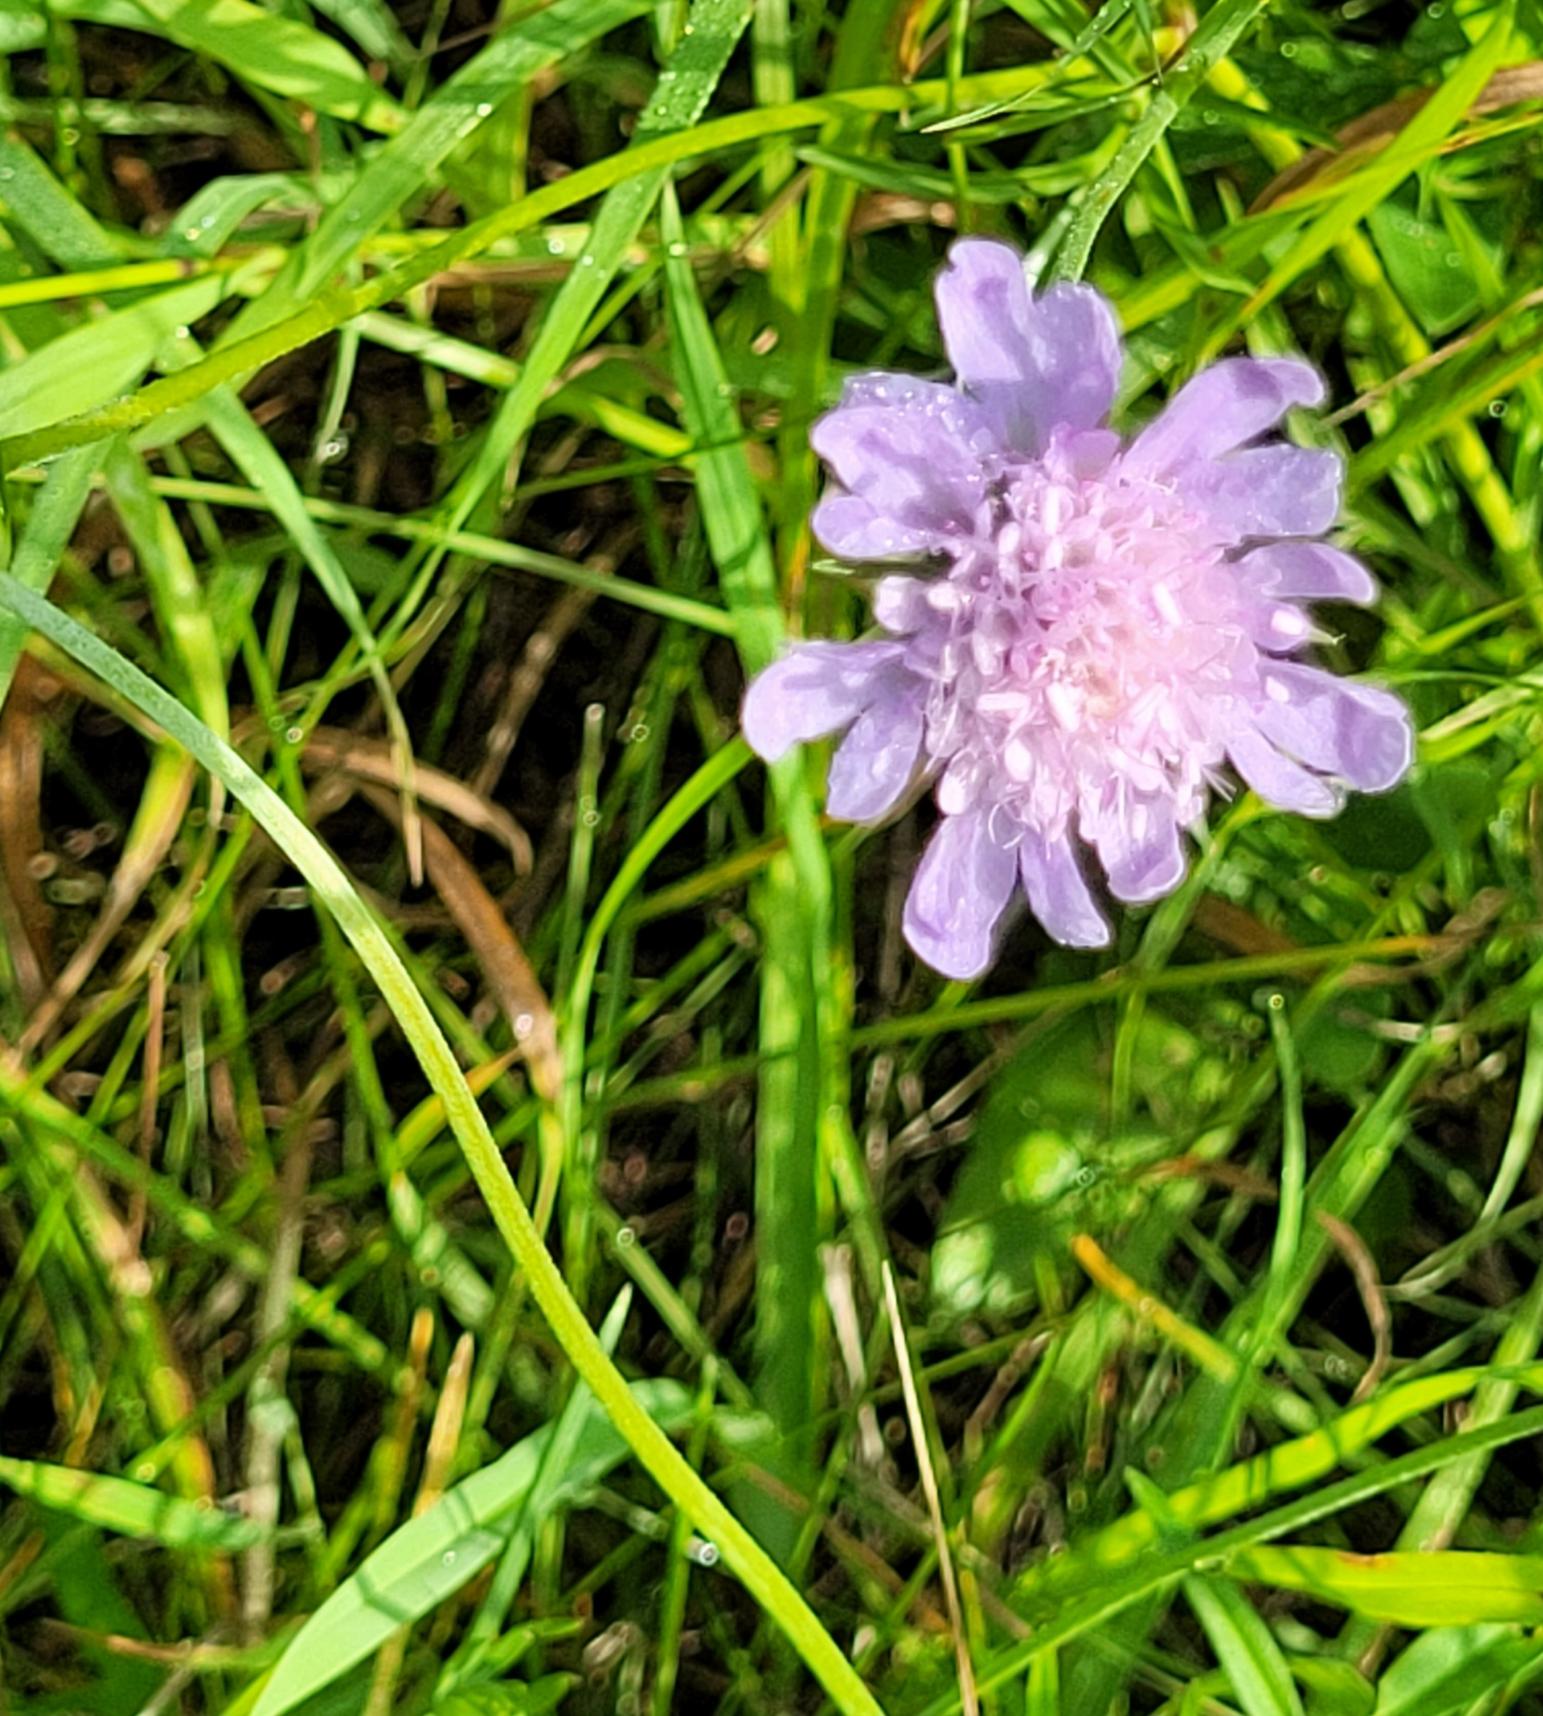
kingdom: Plantae
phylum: Tracheophyta
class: Magnoliopsida
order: Dipsacales
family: Caprifoliaceae
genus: Scabiosa
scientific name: Scabiosa columbaria
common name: Due-skabiose
